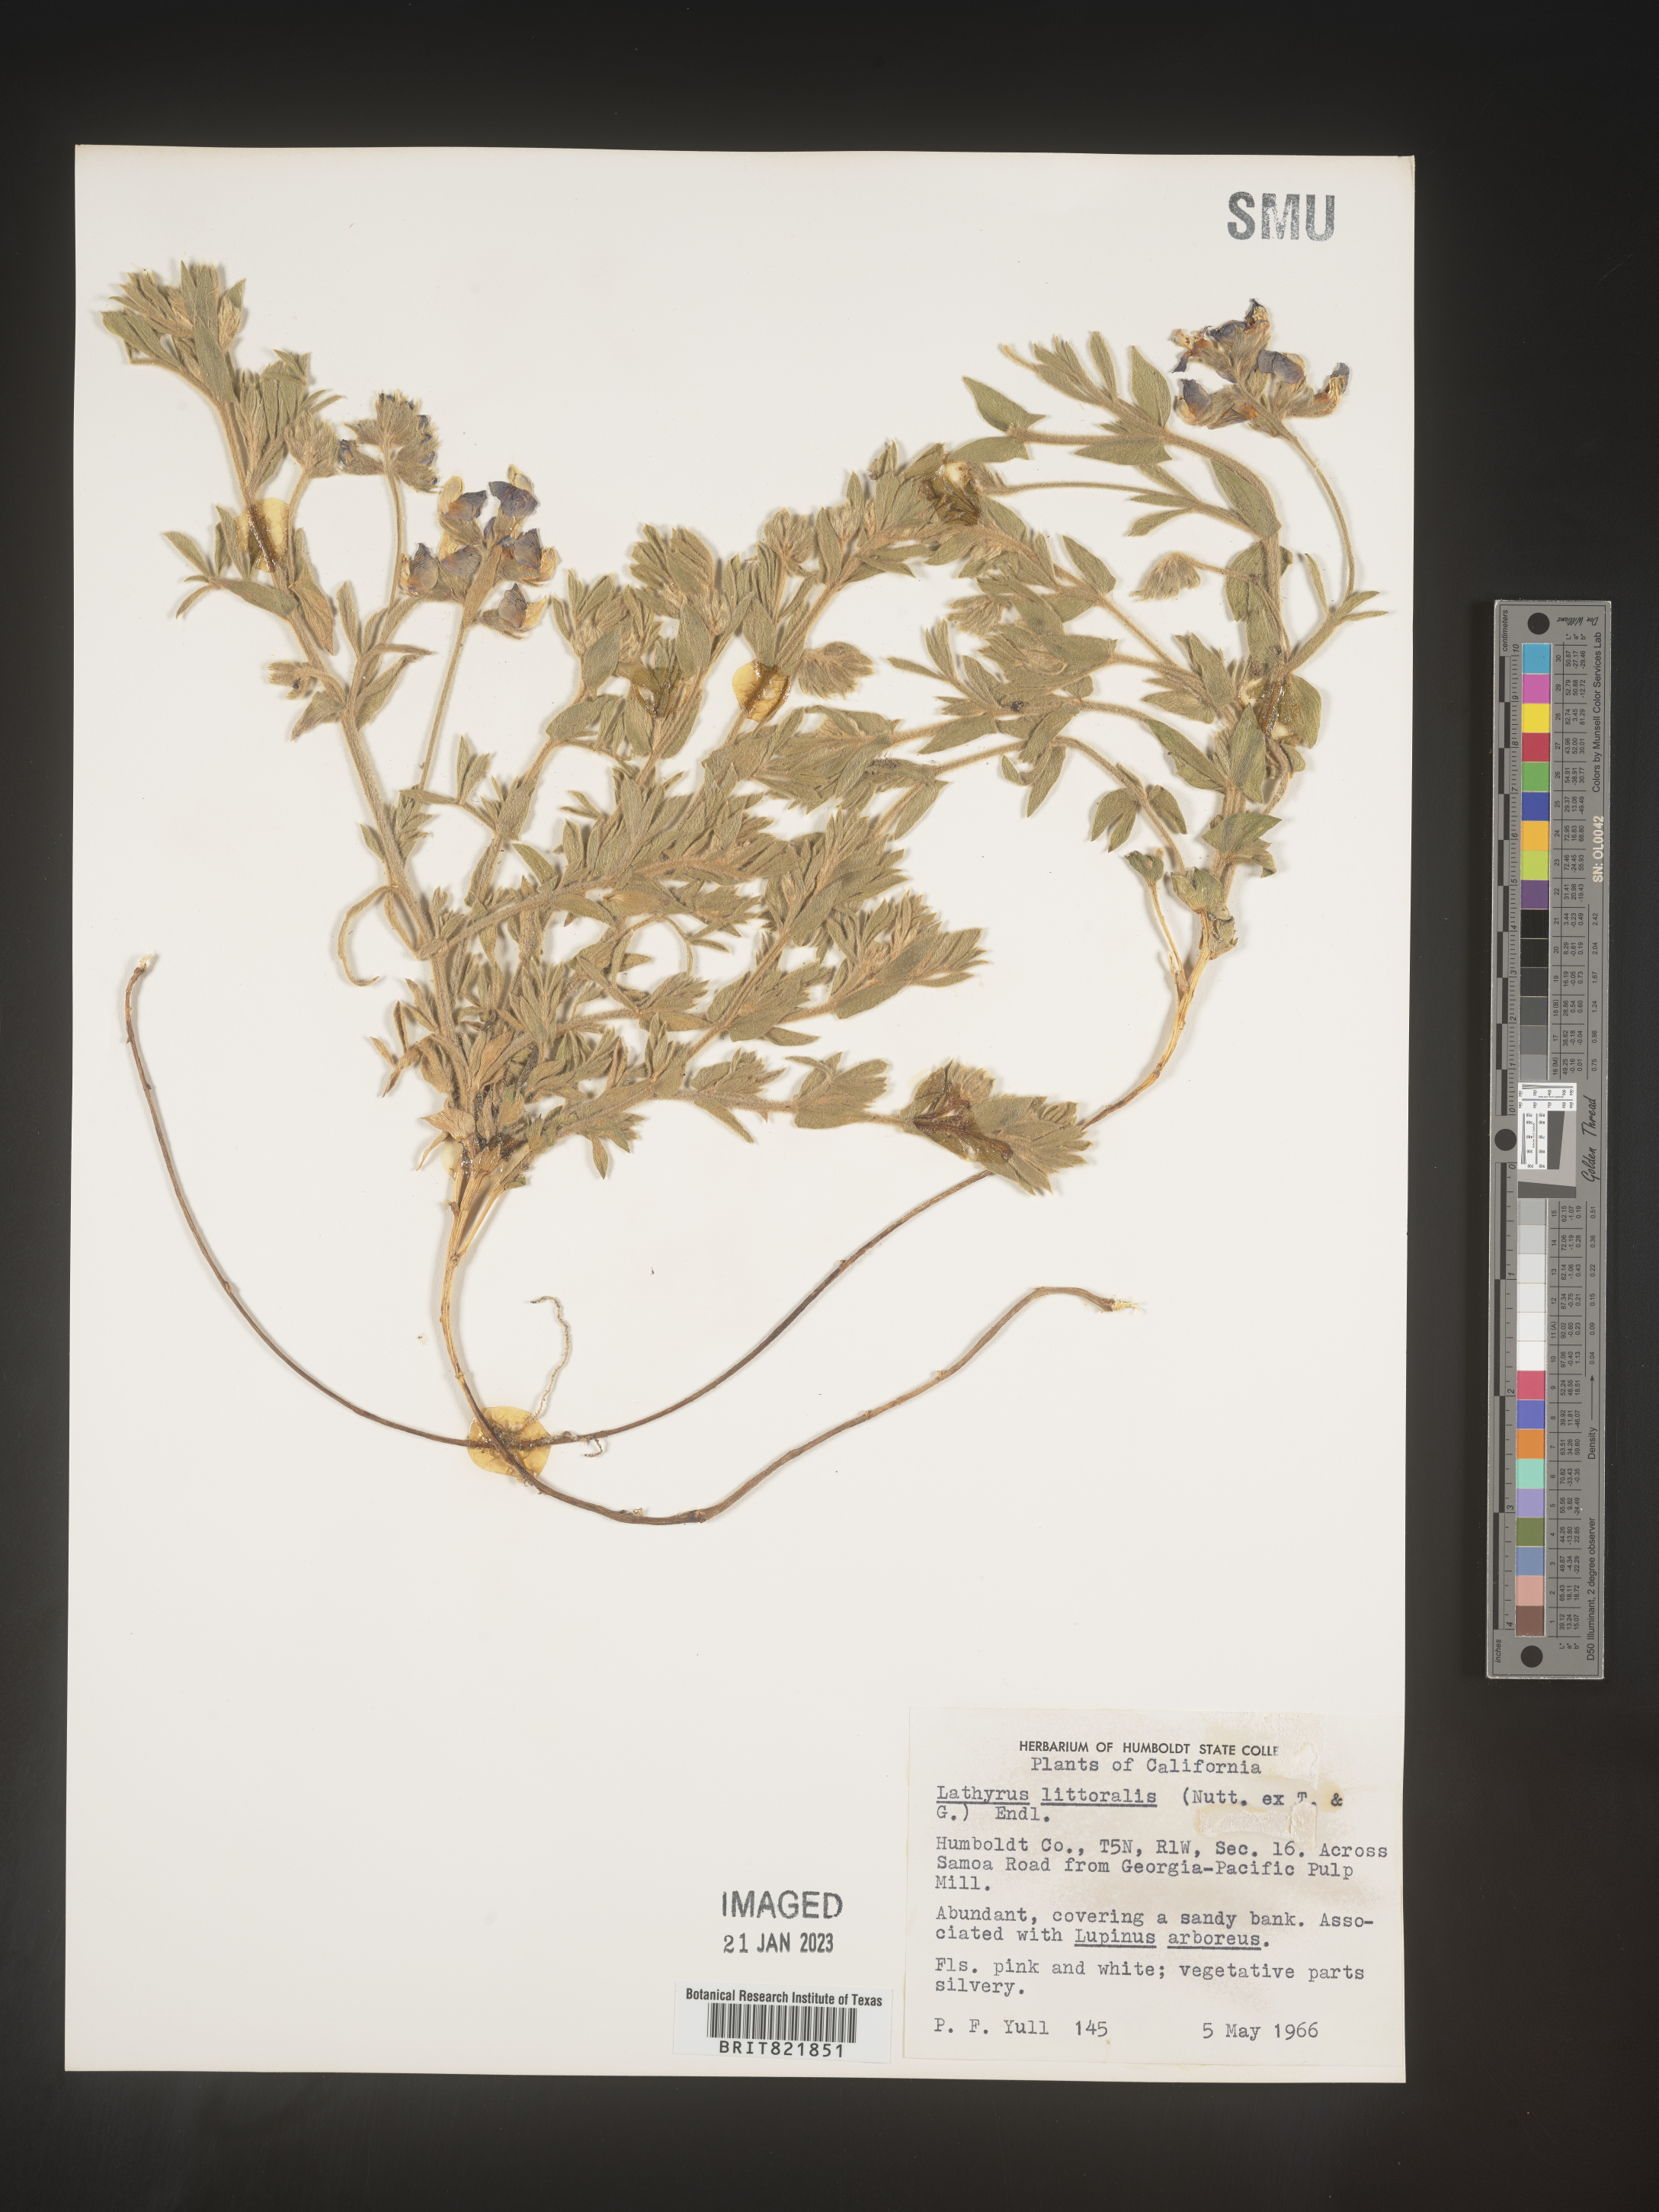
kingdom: Plantae
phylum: Tracheophyta
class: Magnoliopsida
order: Fabales
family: Fabaceae
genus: Lathyrus
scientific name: Lathyrus
